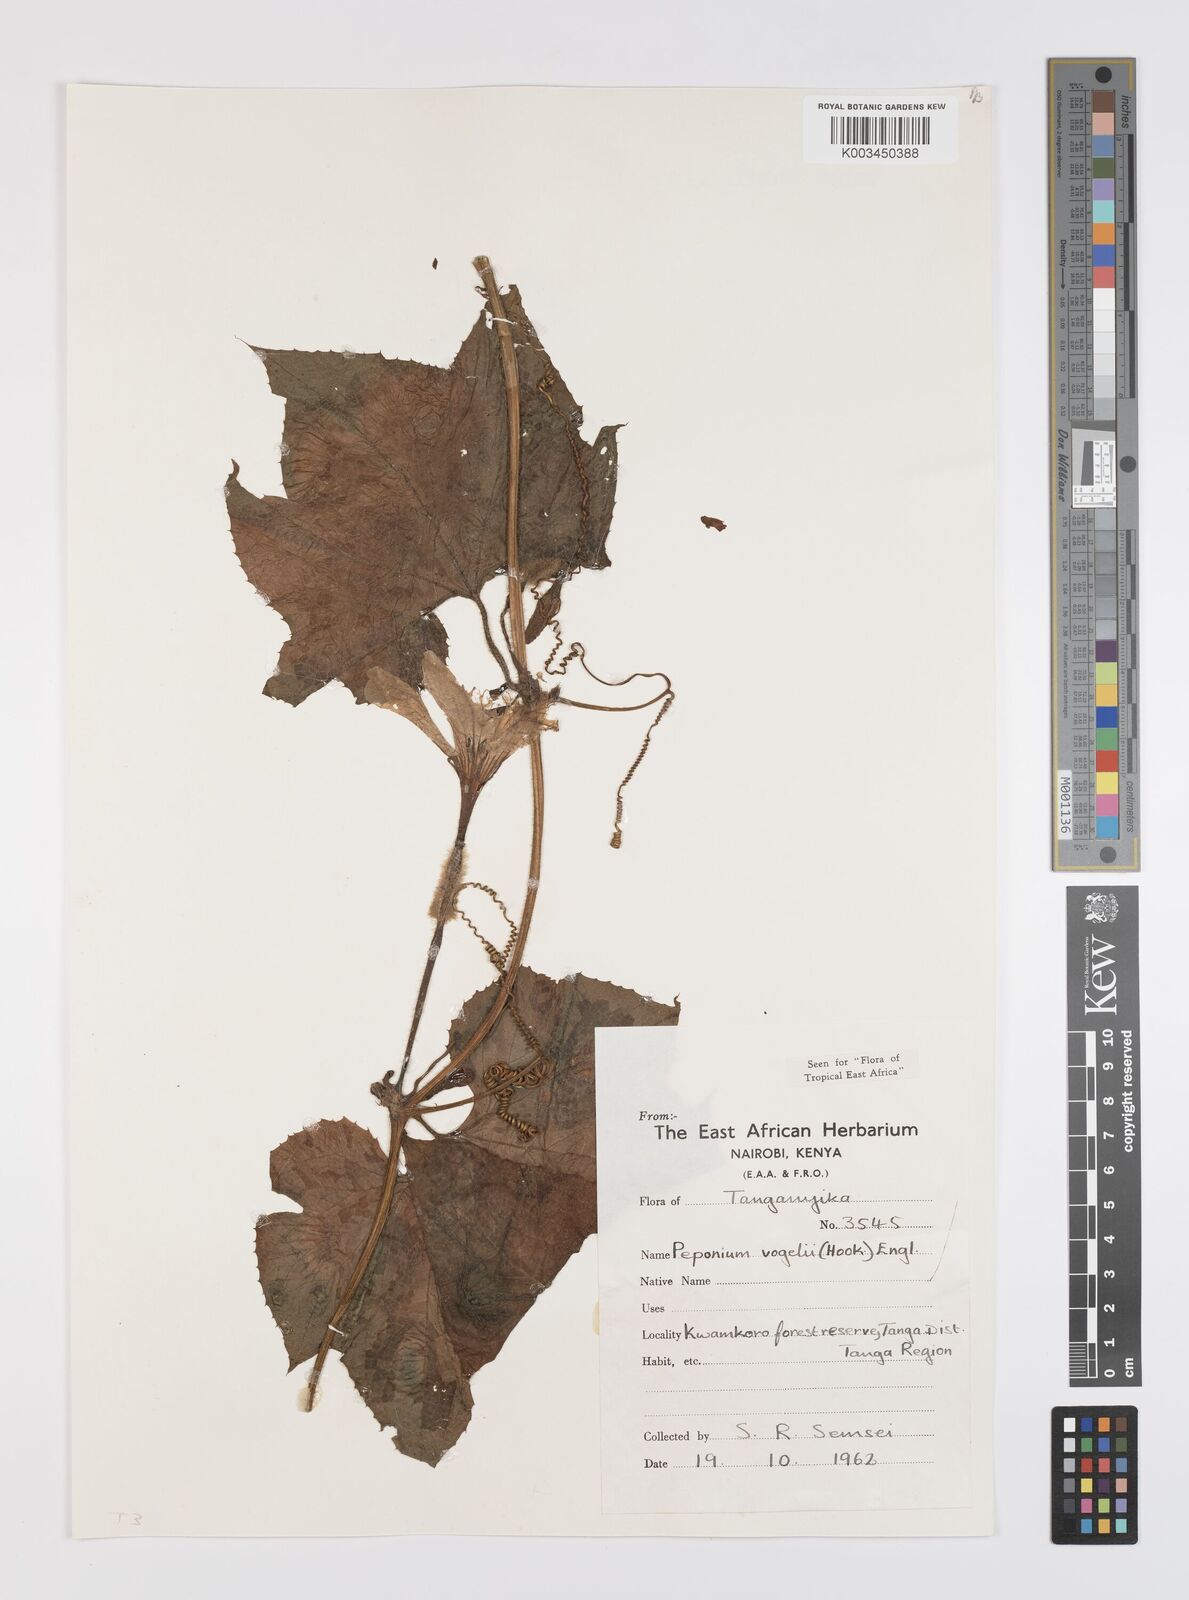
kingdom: Plantae
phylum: Tracheophyta
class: Magnoliopsida
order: Cucurbitales
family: Cucurbitaceae
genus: Peponium
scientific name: Peponium vogelii
